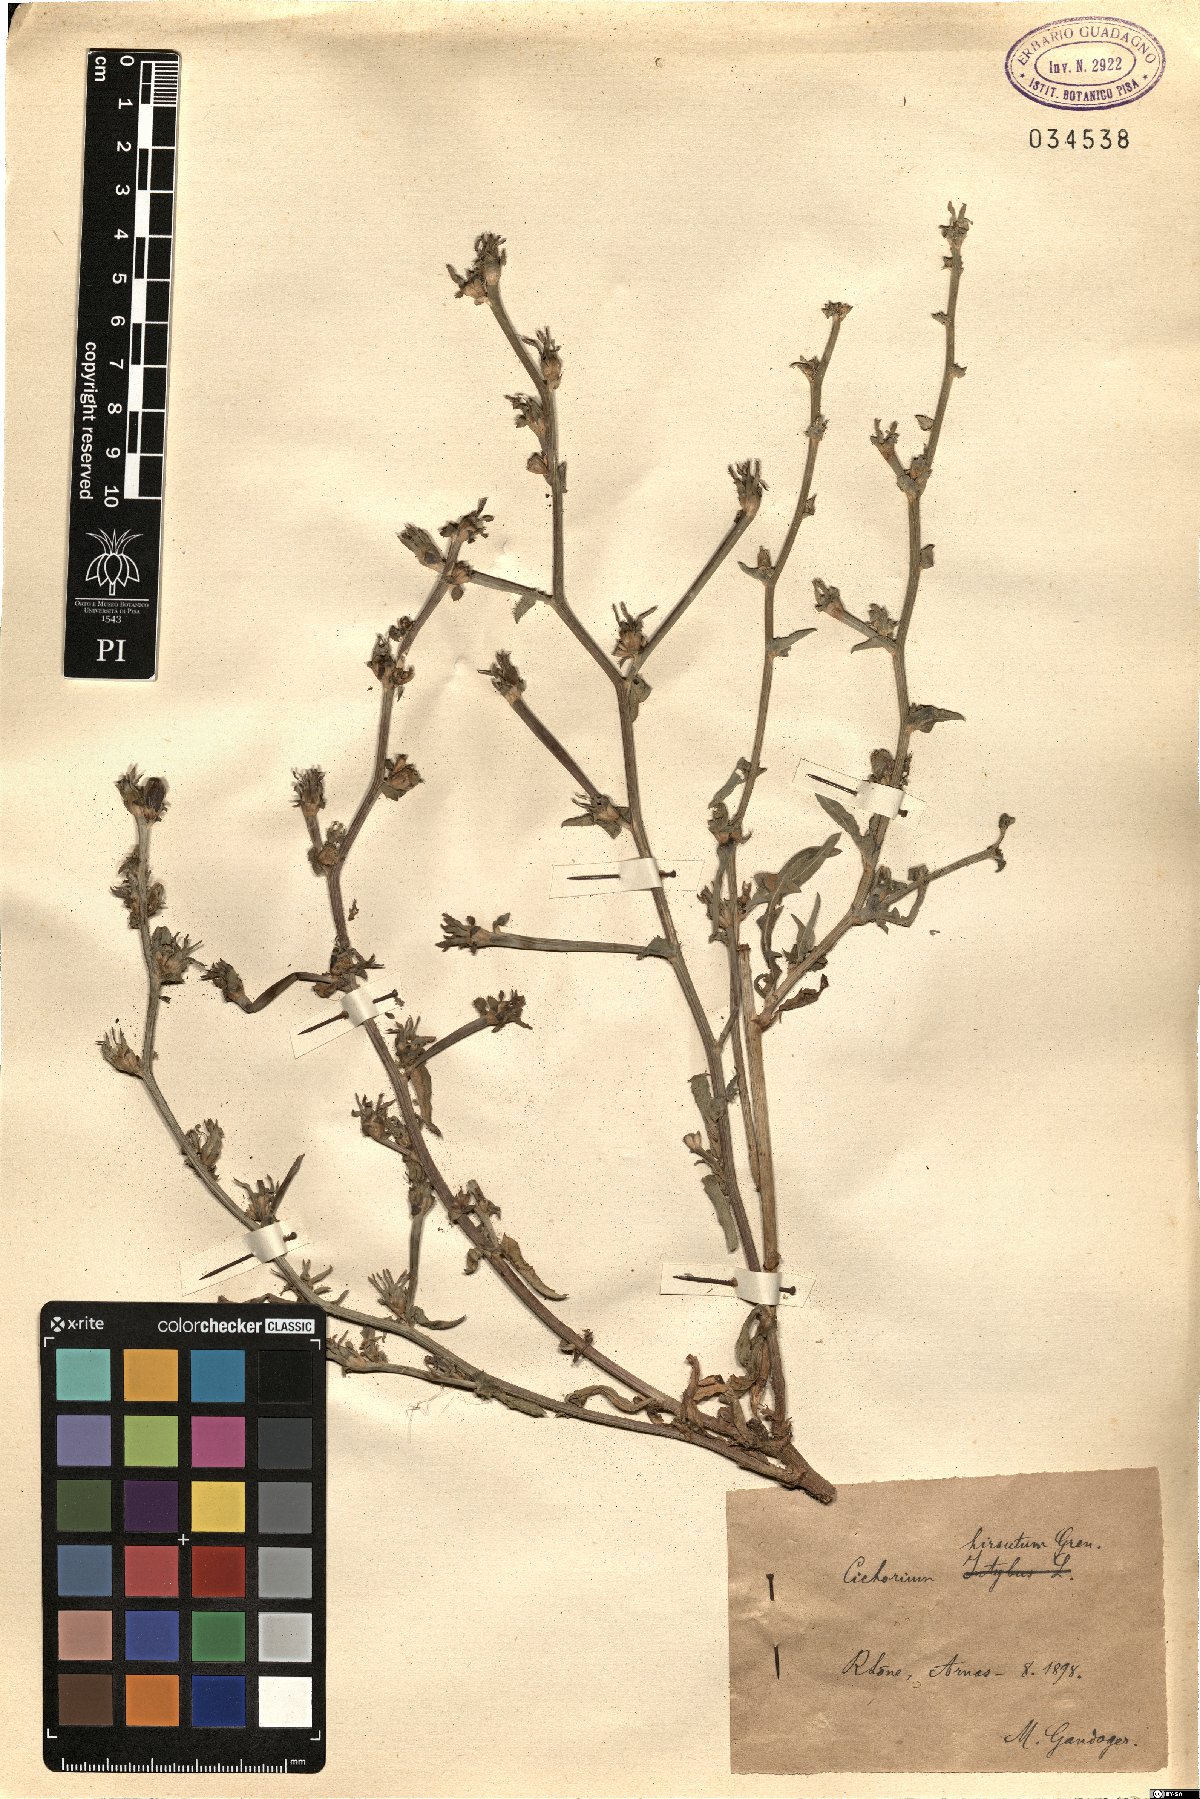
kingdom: Plantae
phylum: Tracheophyta
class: Magnoliopsida
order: Asterales
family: Asteraceae
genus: Cichorium
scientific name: Cichorium intybus
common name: Chicory
